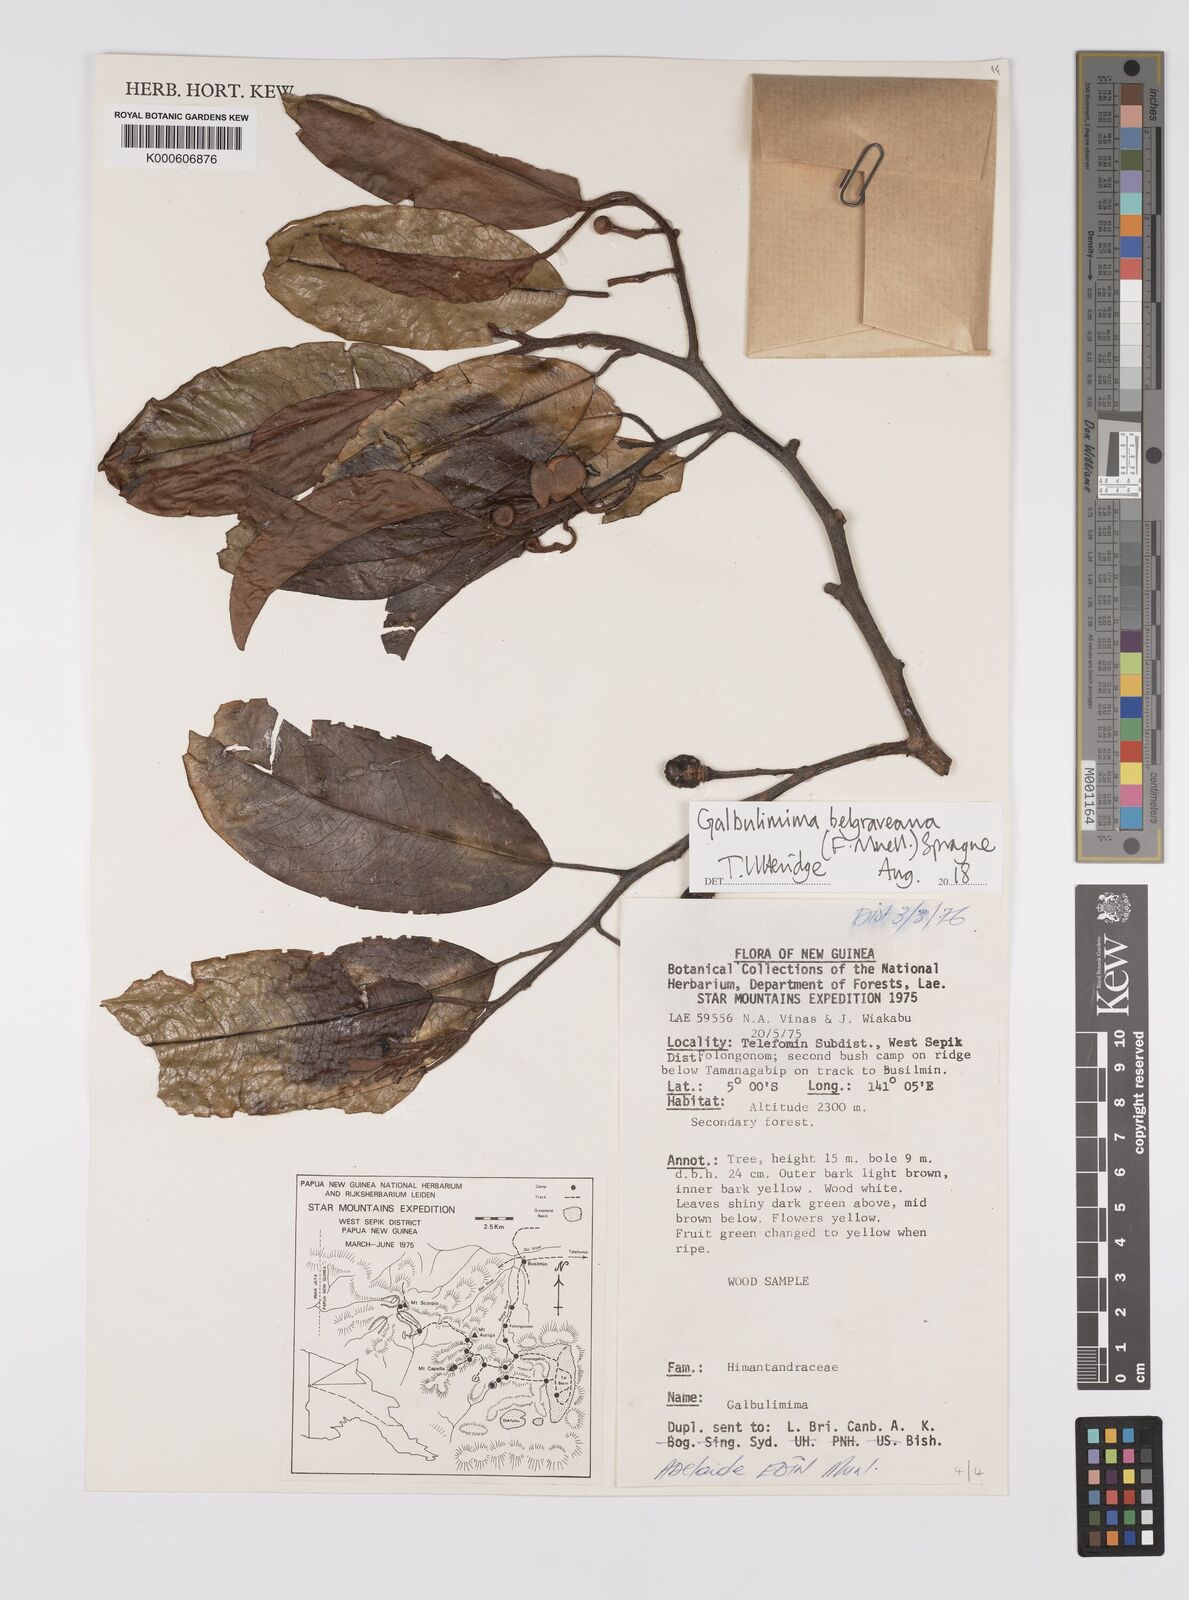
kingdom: Plantae
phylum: Tracheophyta
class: Magnoliopsida
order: Magnoliales
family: Himantandraceae
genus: Galbulimima
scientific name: Galbulimima belgraveana
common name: Northern pigeonberry-ash
